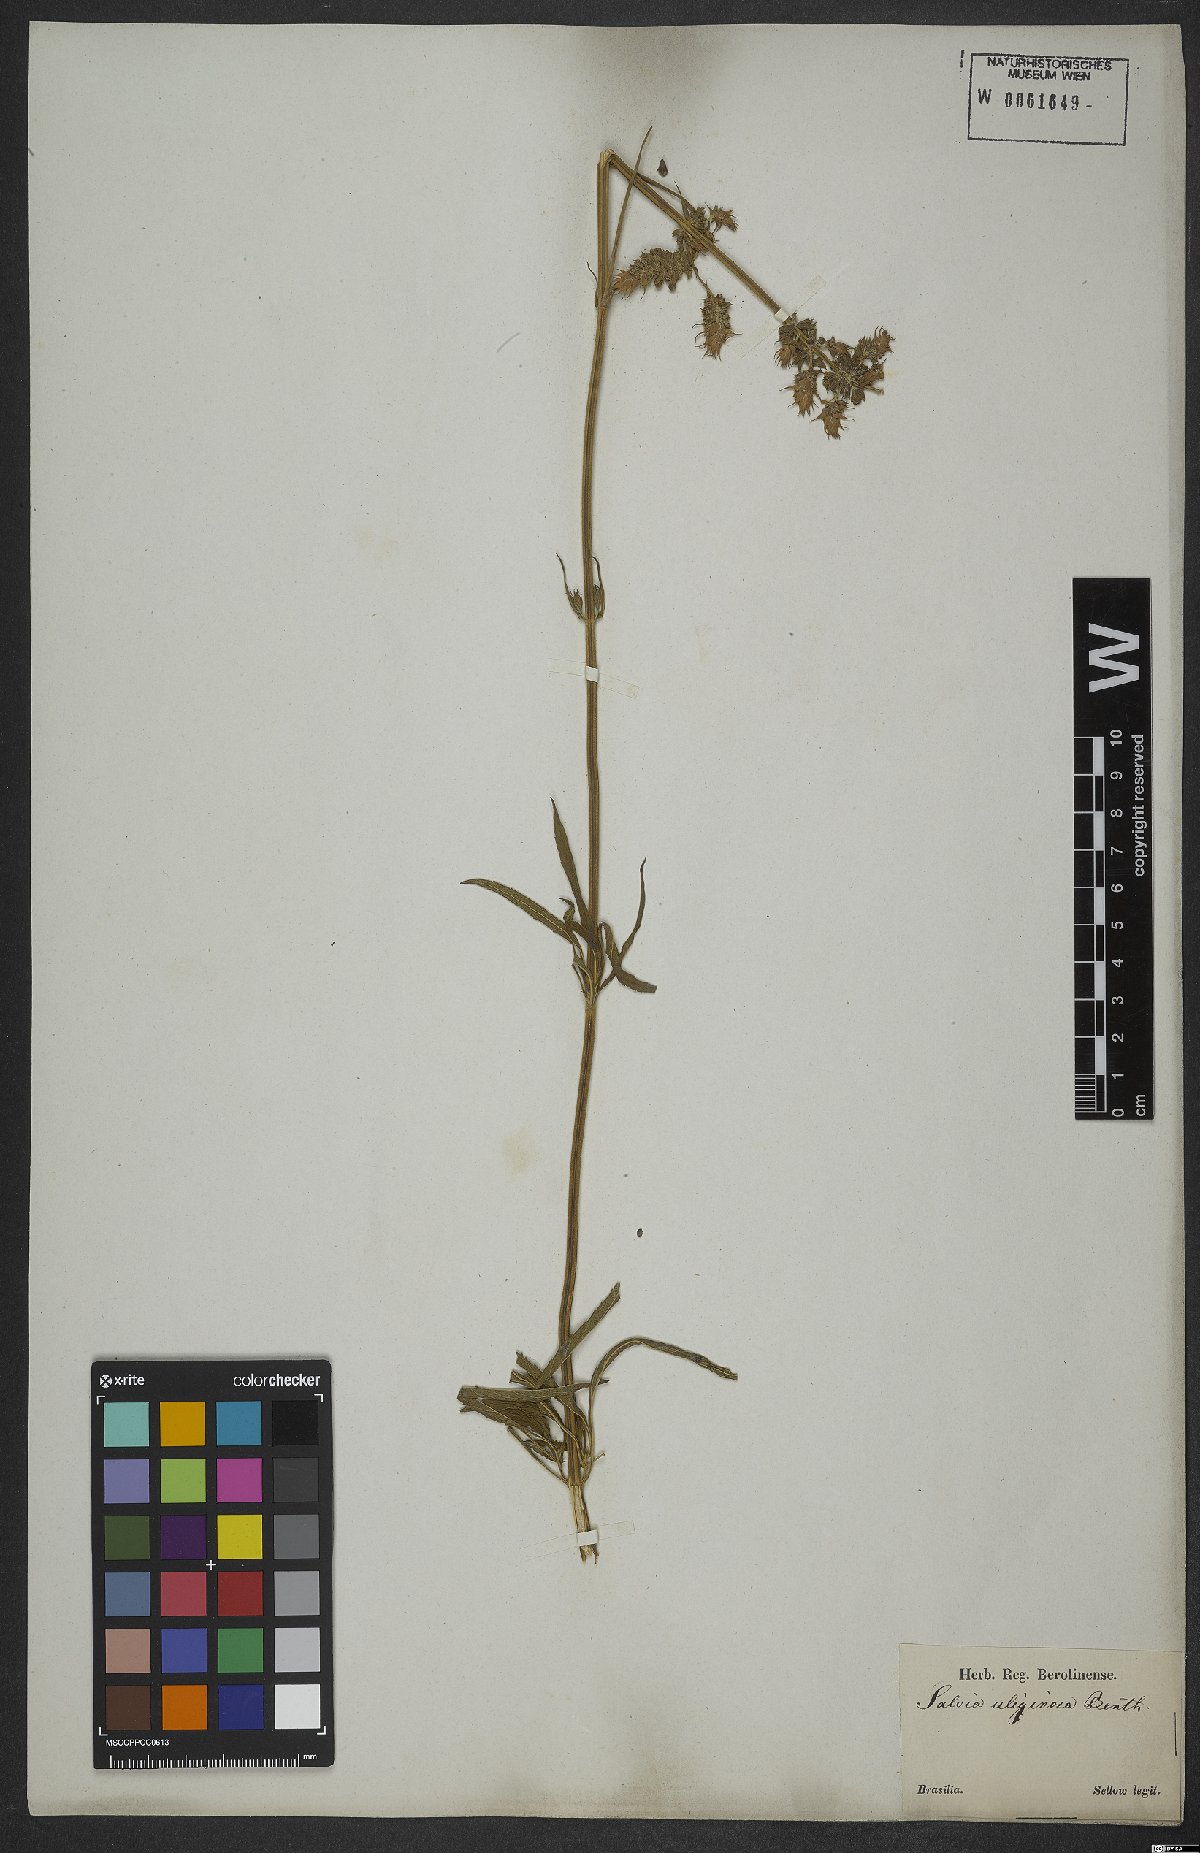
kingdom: Plantae
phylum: Tracheophyta
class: Magnoliopsida
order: Lamiales
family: Lamiaceae
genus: Salvia
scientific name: Salvia uliginosa
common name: Bog sage
